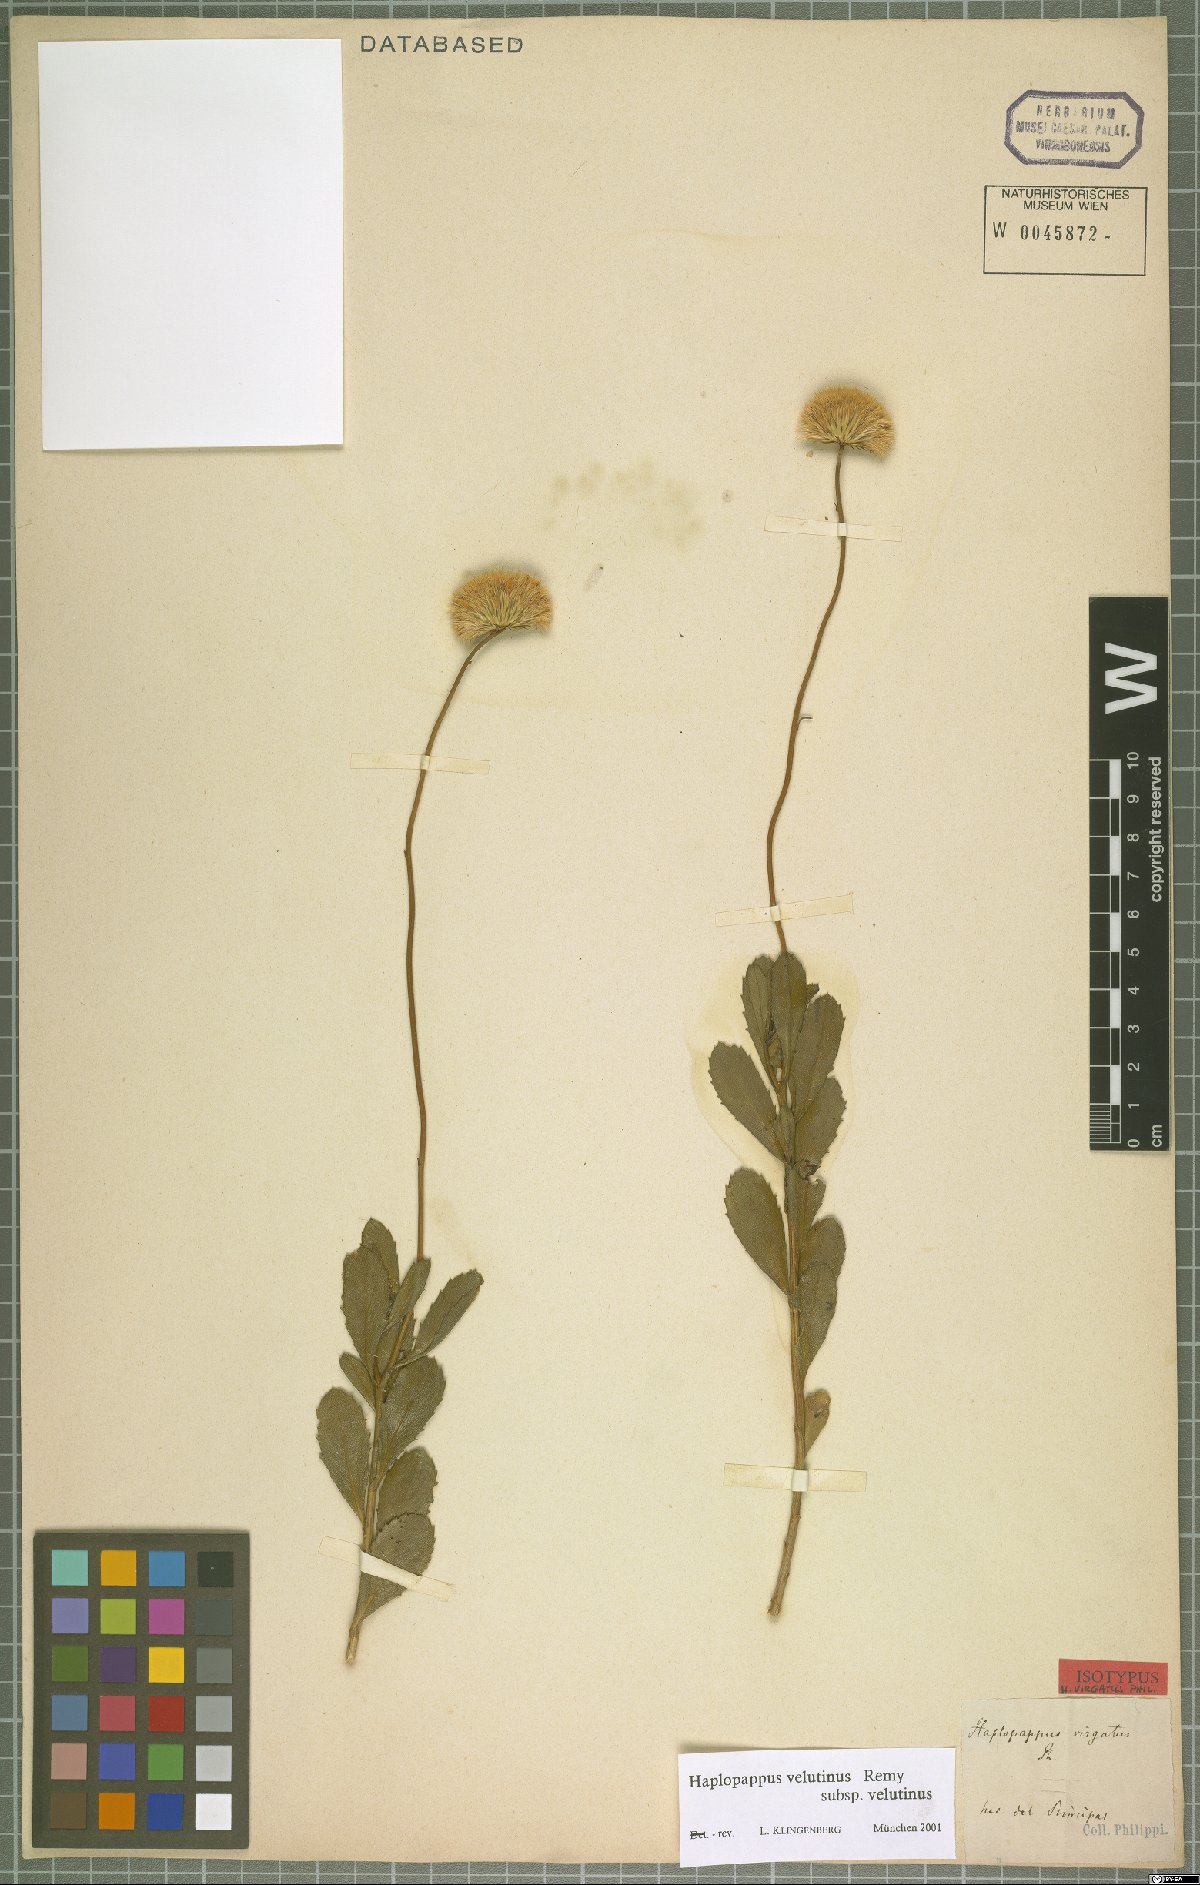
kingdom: Plantae
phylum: Tracheophyta
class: Magnoliopsida
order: Asterales
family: Asteraceae
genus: Haplopappus
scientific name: Haplopappus velutinus
